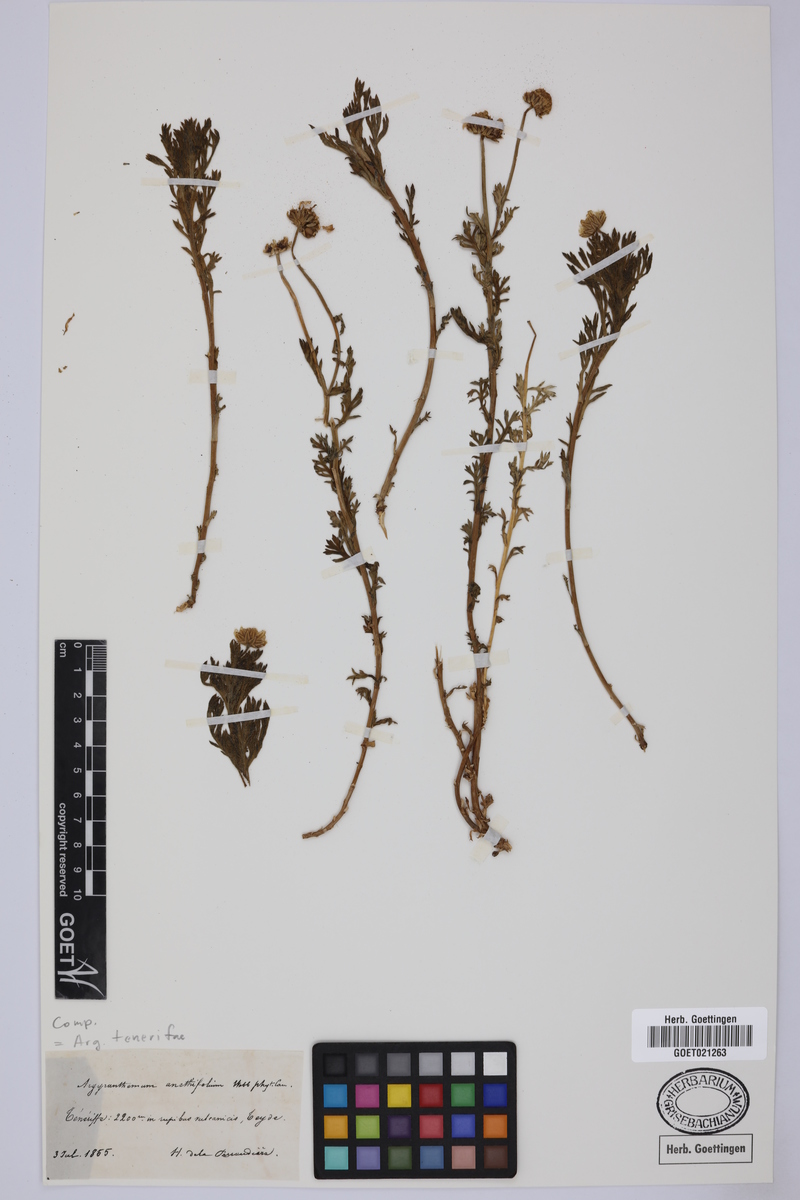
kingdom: Plantae
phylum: Tracheophyta
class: Magnoliopsida
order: Asterales
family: Asteraceae
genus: Argyranthemum
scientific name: Argyranthemum tenerifae
